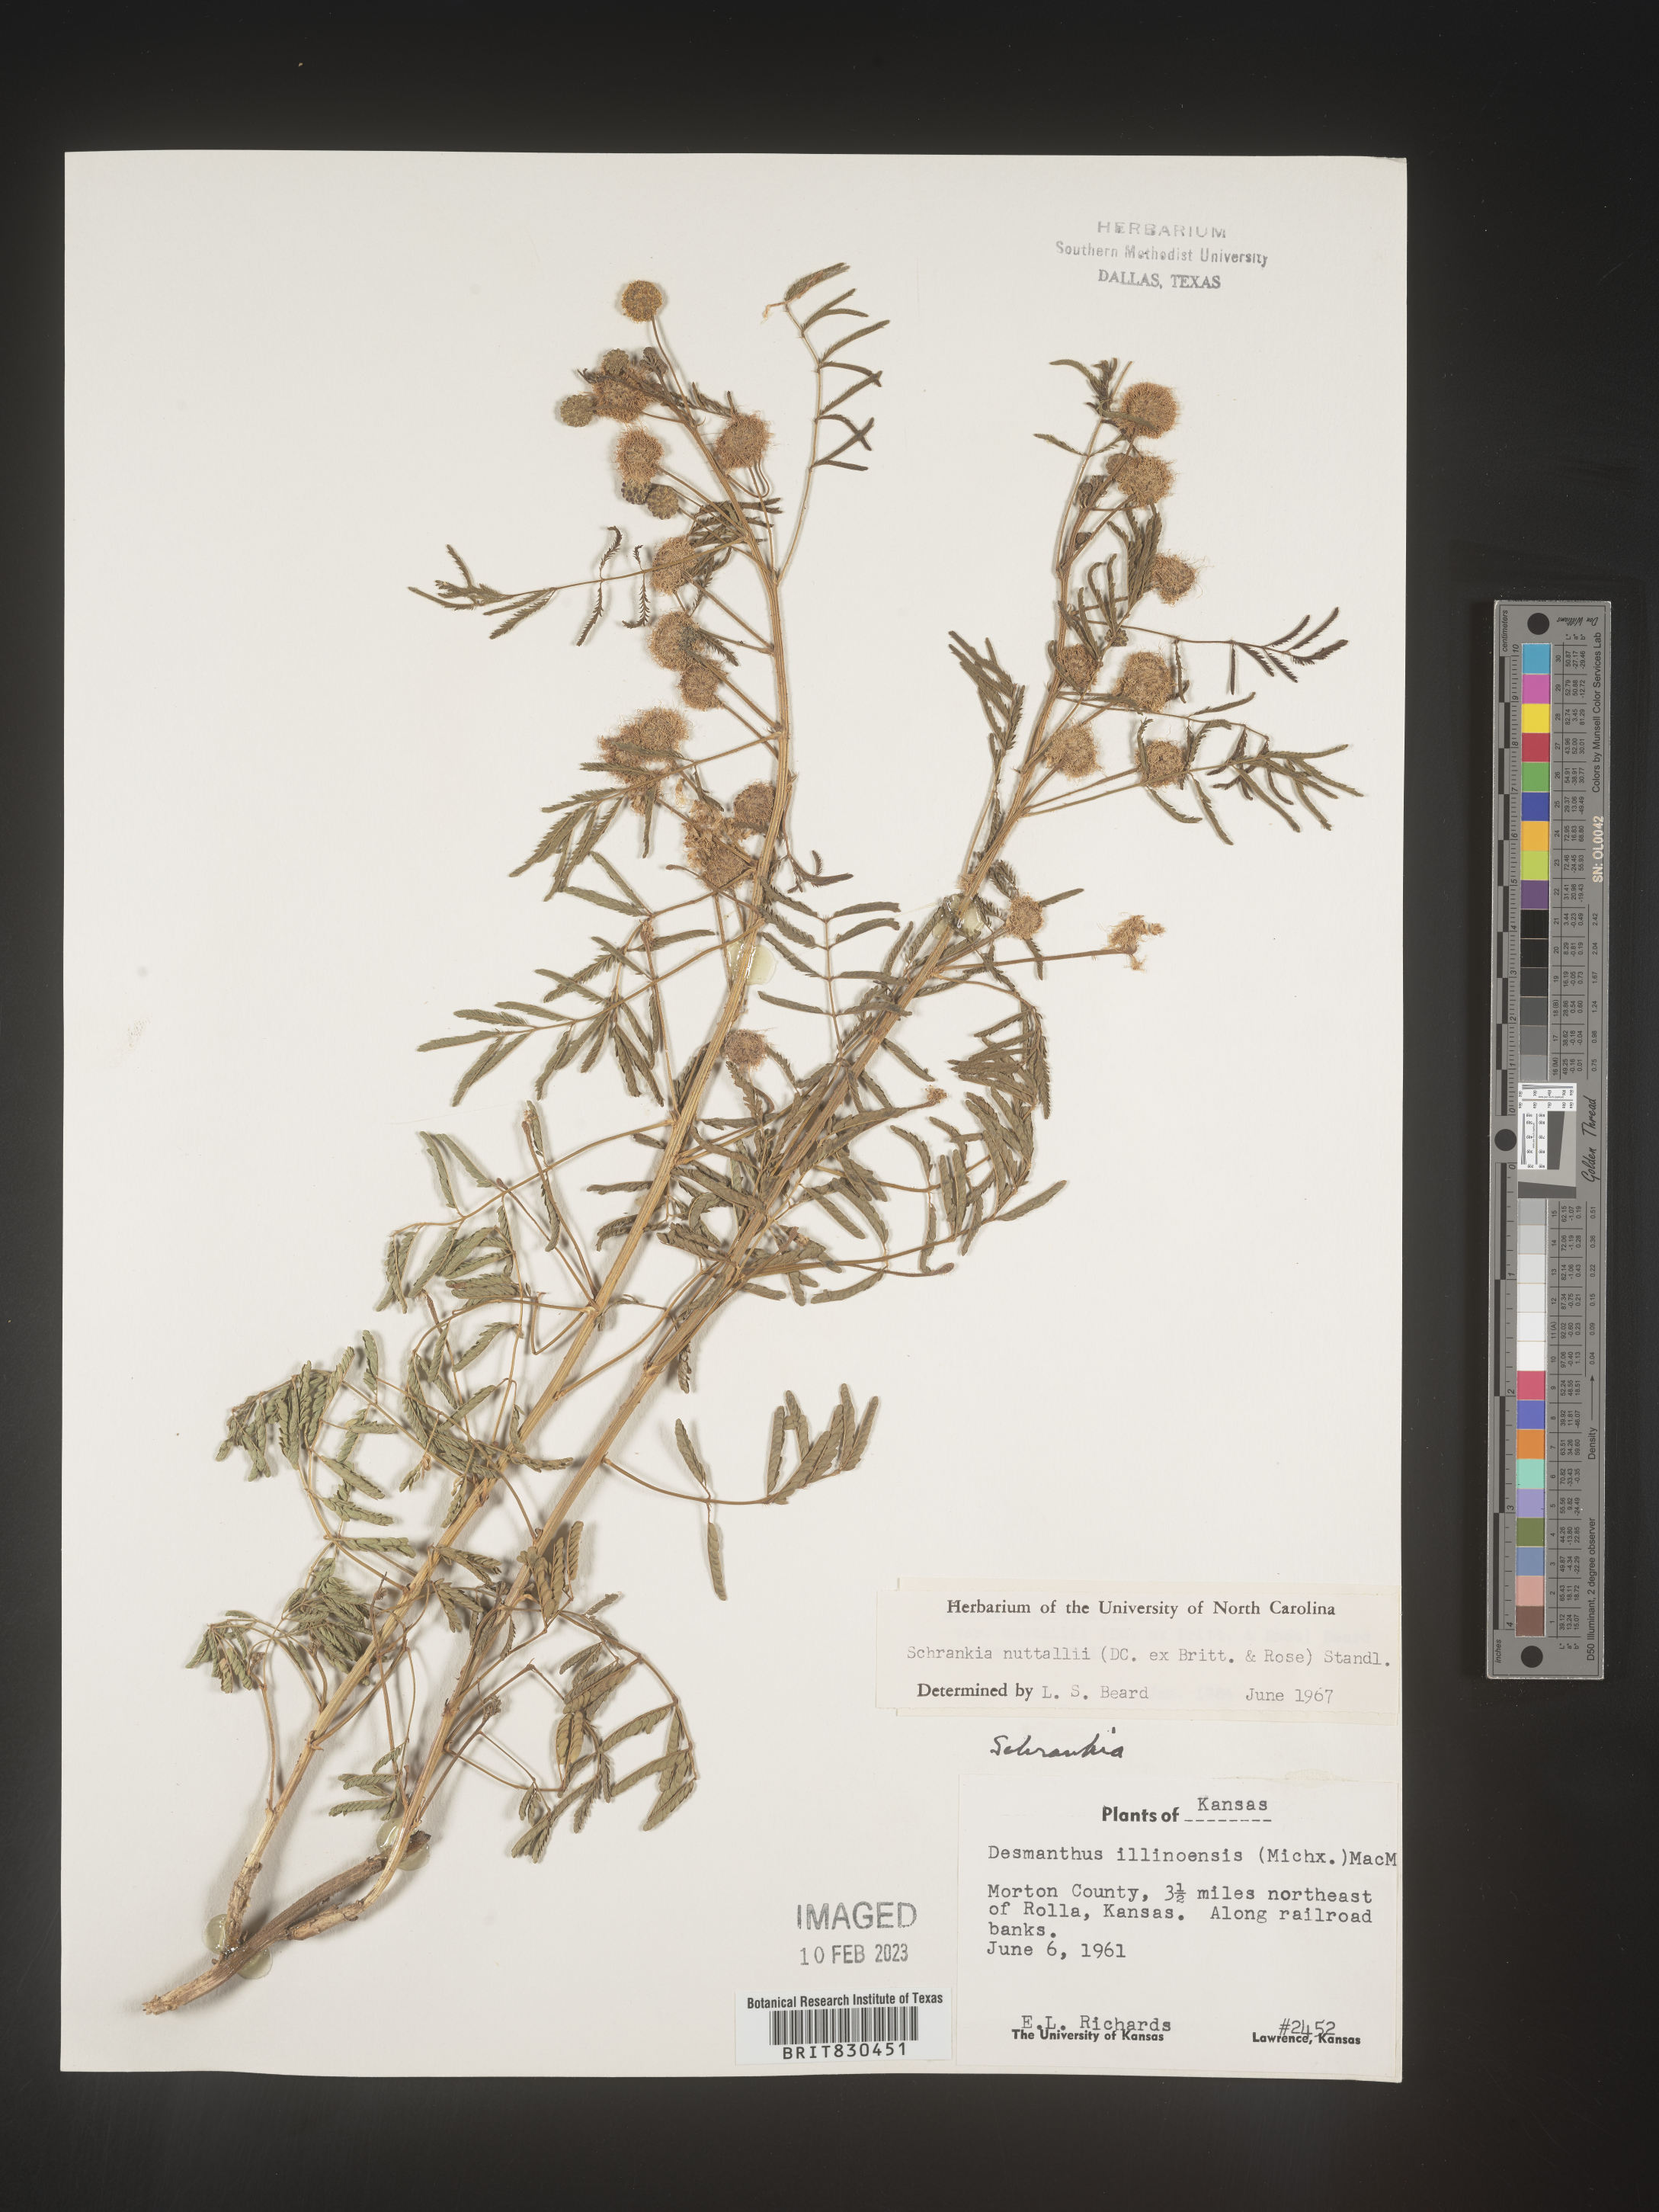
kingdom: Plantae
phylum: Tracheophyta
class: Magnoliopsida
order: Fabales
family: Fabaceae
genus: Mimosa
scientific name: Mimosa quadrivalvis
